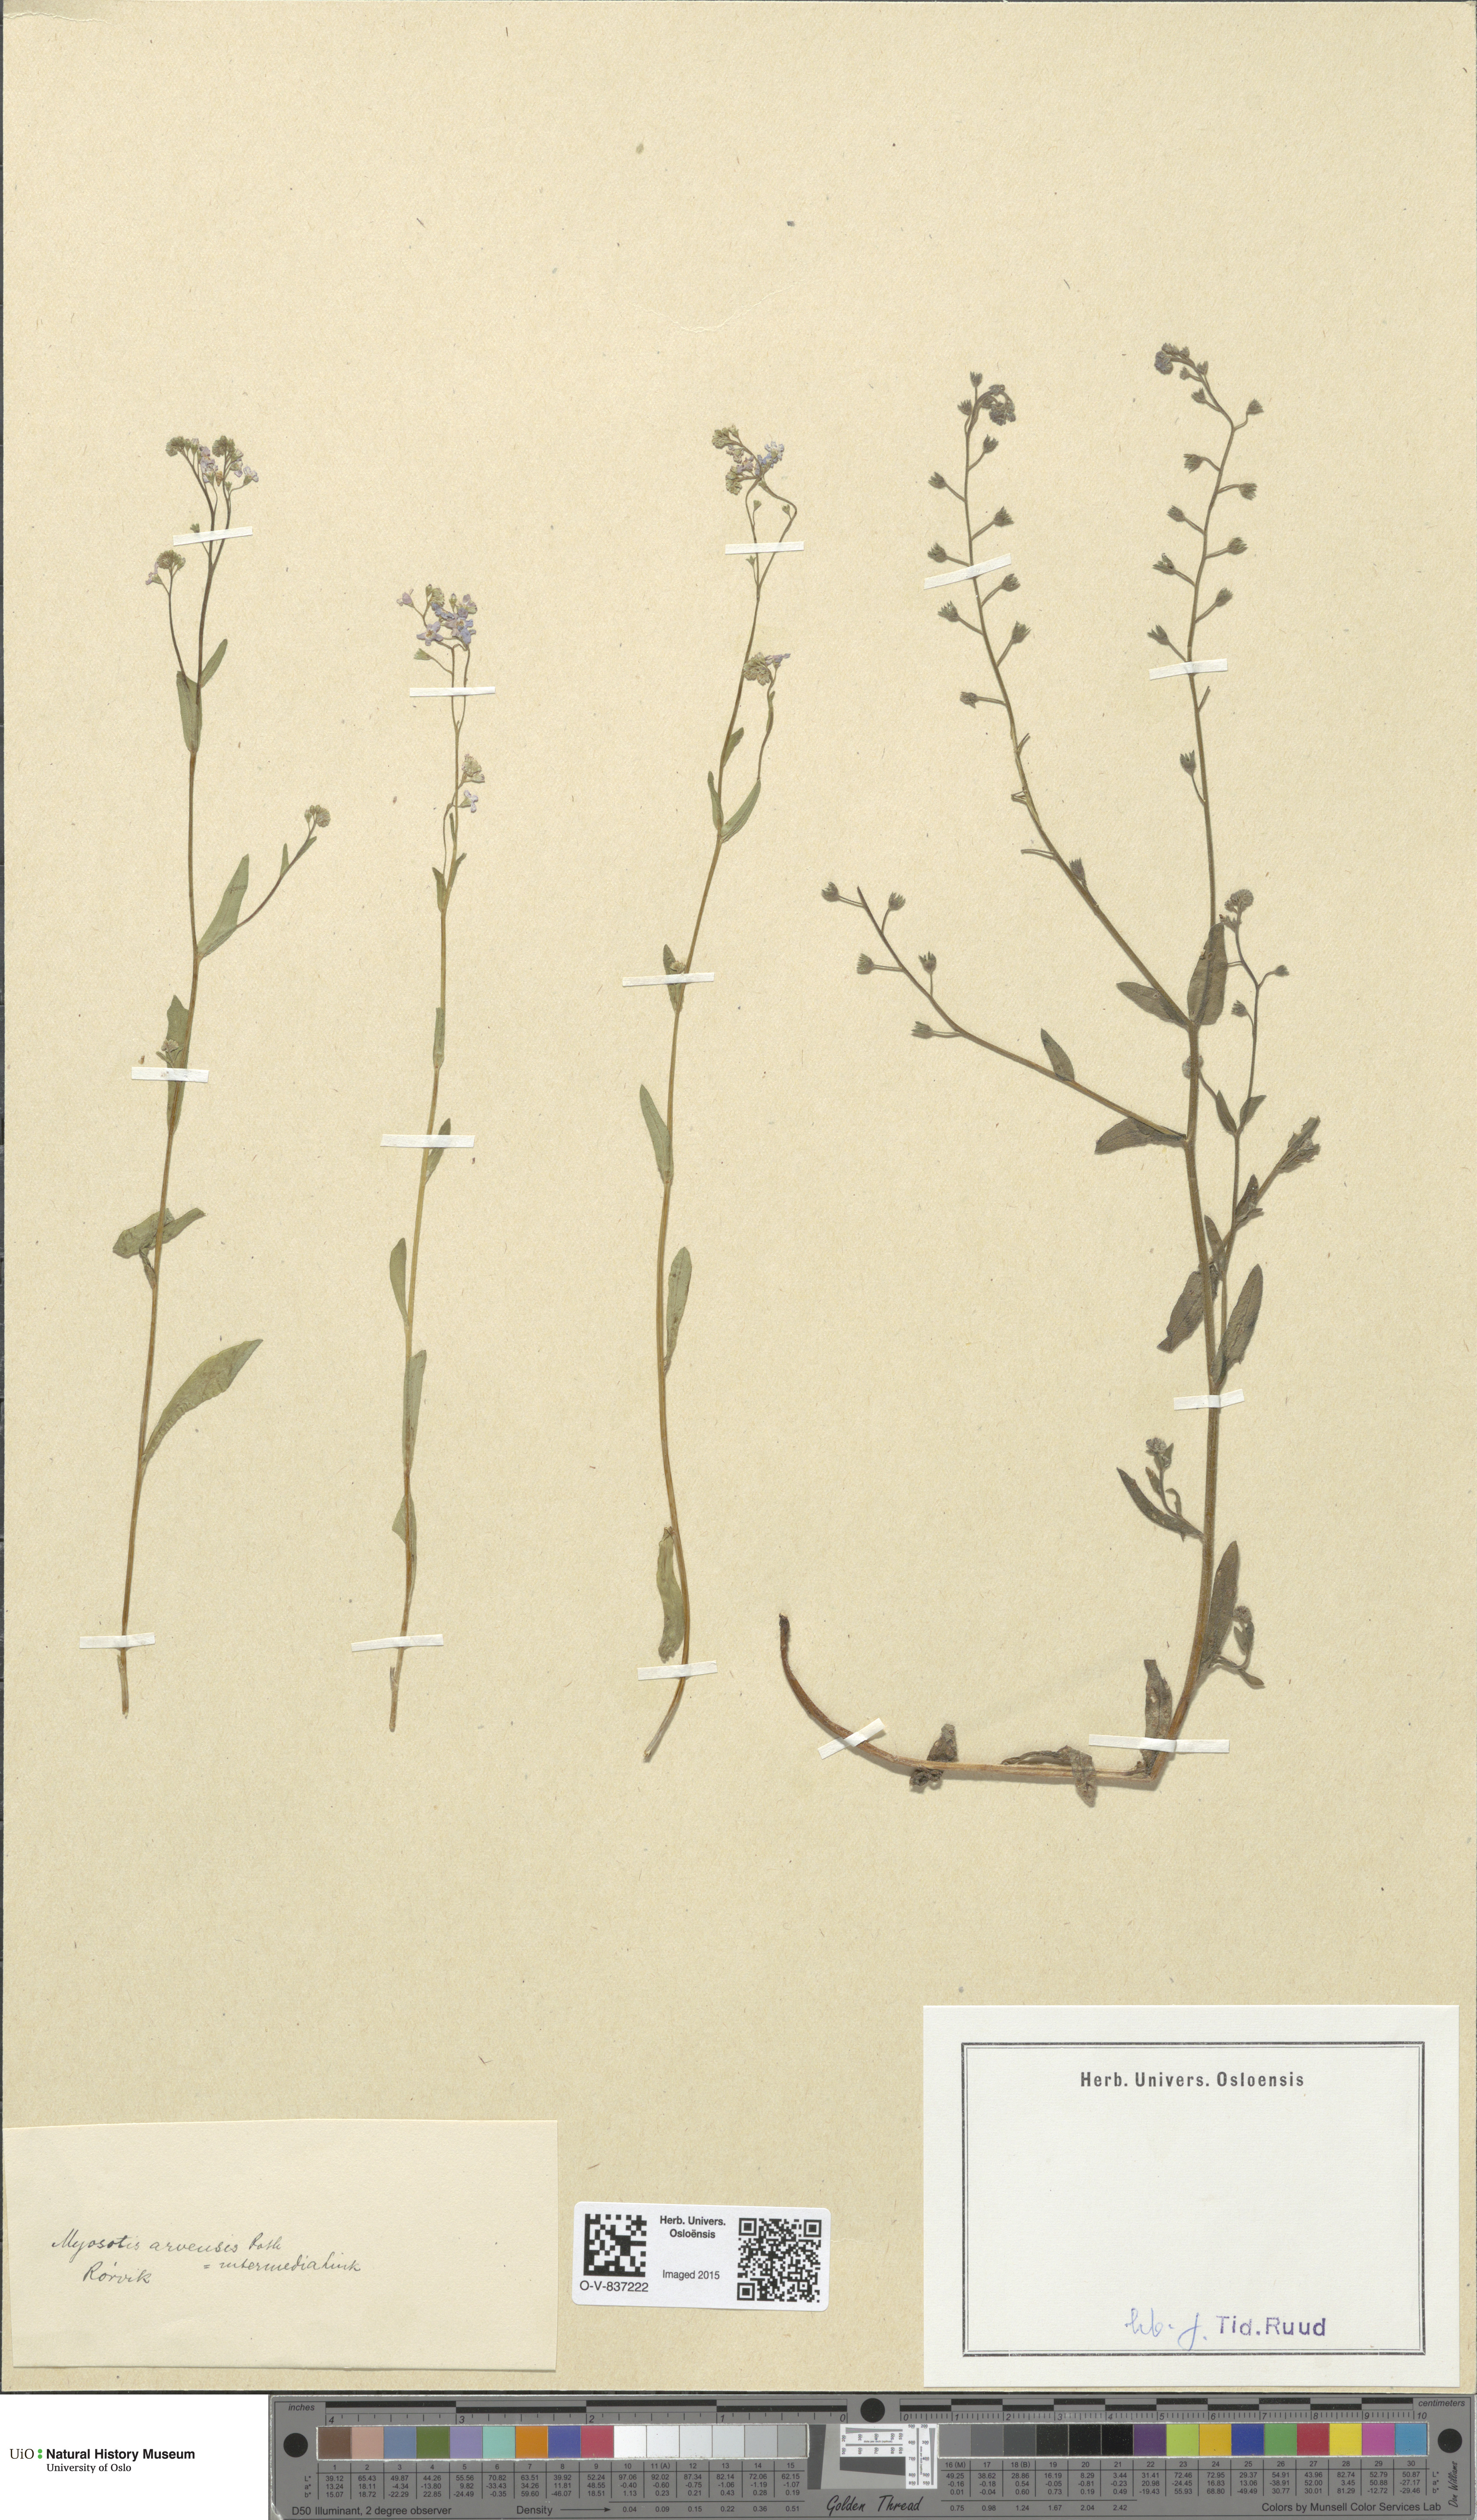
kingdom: Plantae
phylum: Tracheophyta
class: Magnoliopsida
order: Boraginales
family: Boraginaceae
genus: Myosotis
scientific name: Myosotis arvensis
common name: Field forget-me-not
